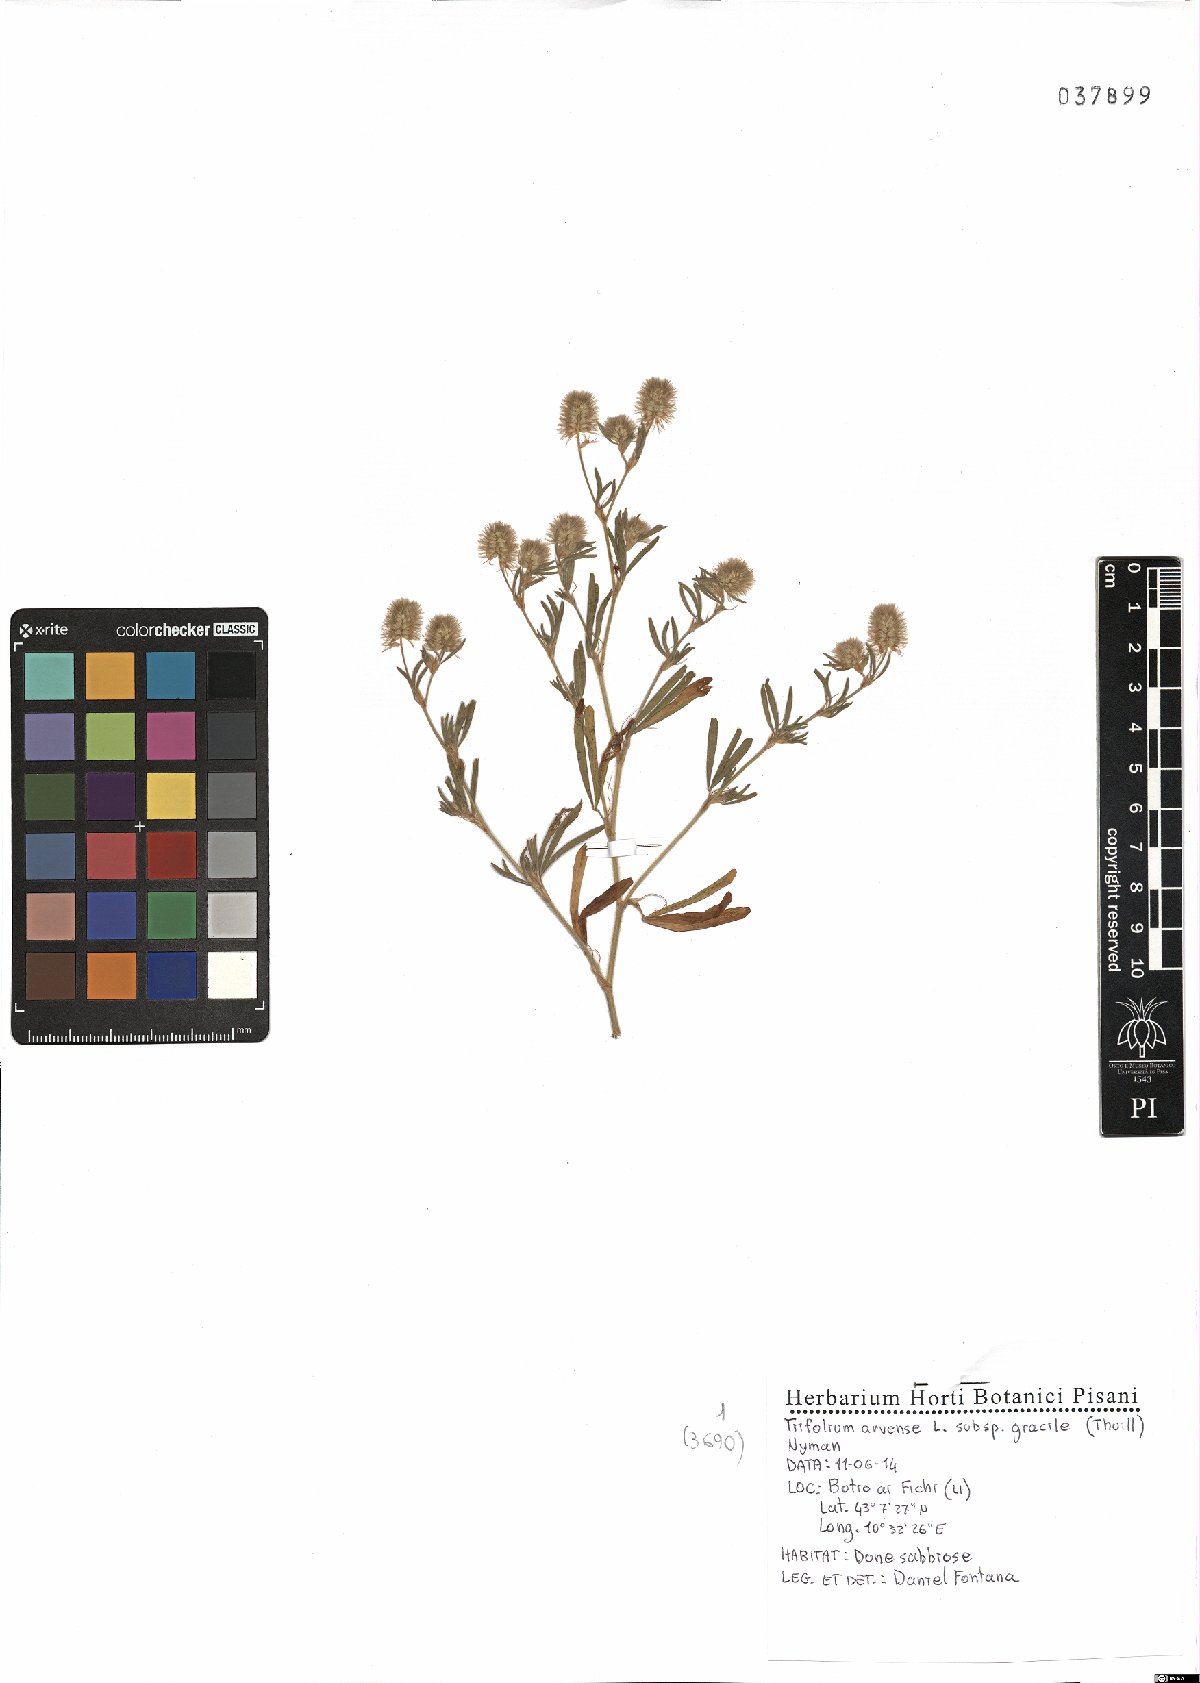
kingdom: Plantae
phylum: Tracheophyta
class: Magnoliopsida
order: Fabales
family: Fabaceae
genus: Trifolium
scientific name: Trifolium arvense
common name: Hare's-foot clover
